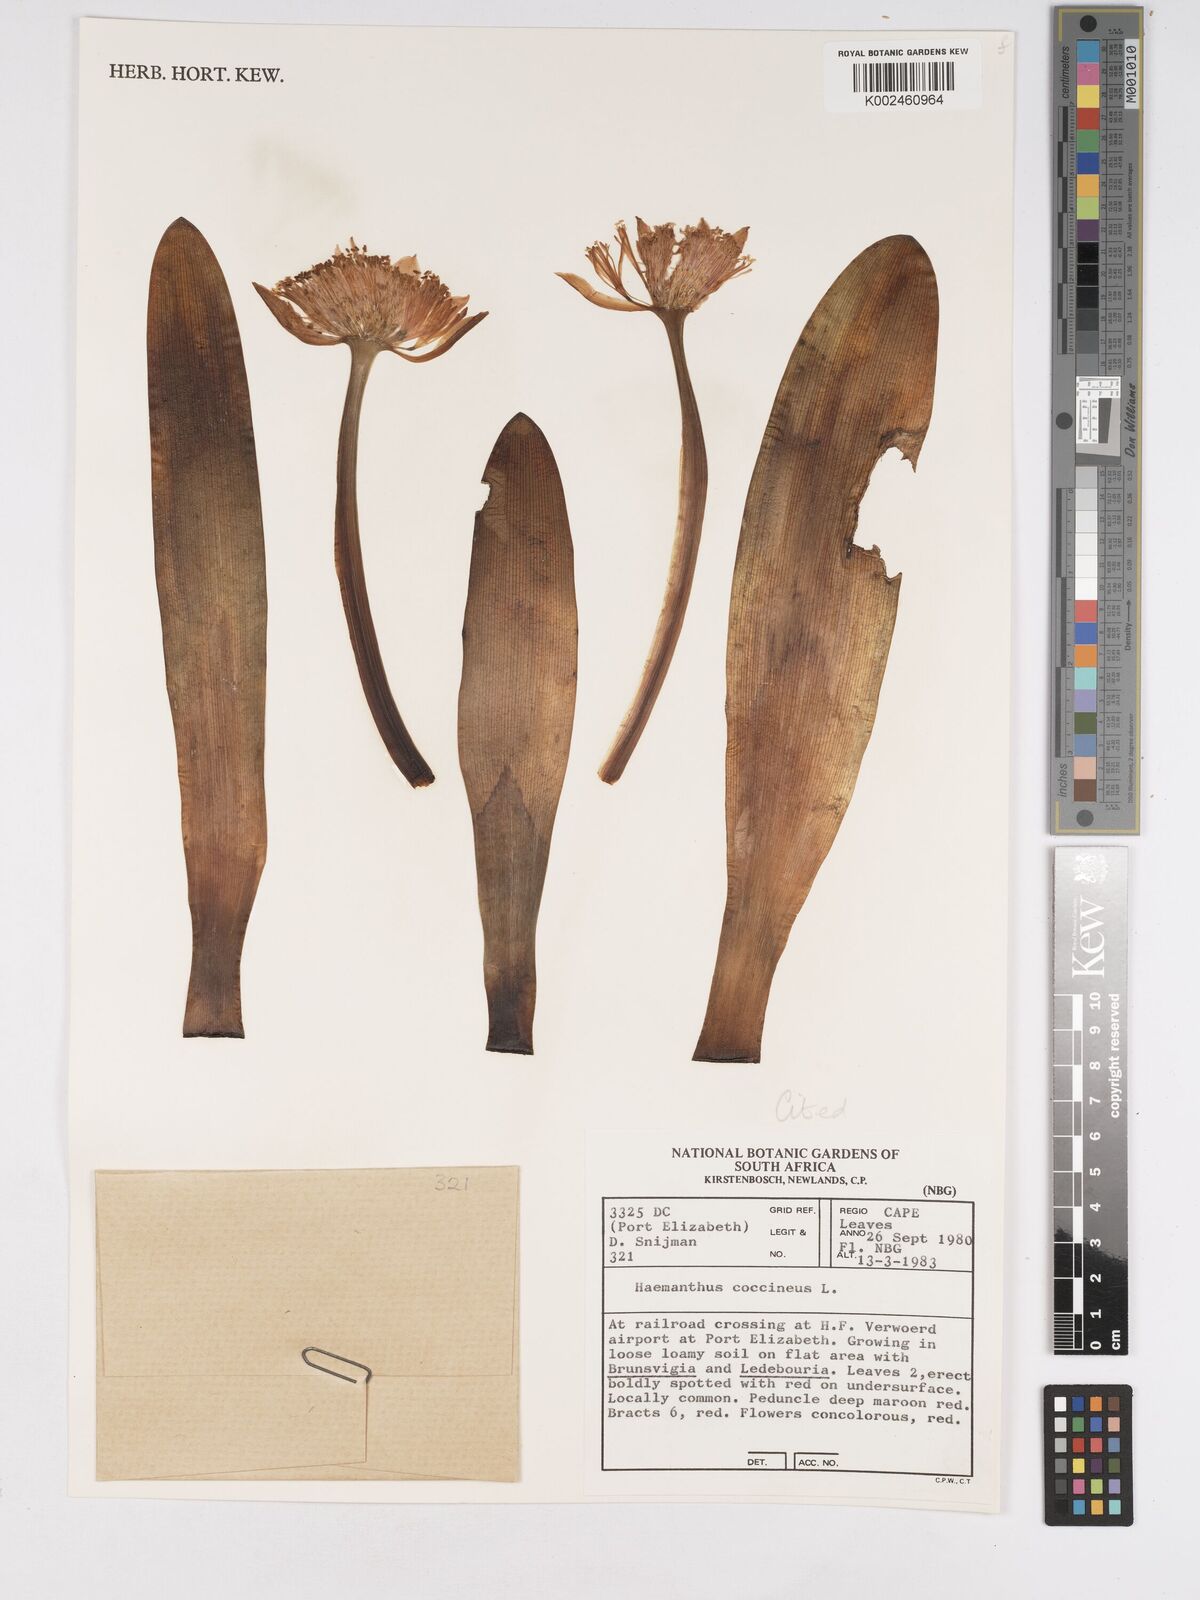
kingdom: Plantae
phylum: Tracheophyta
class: Liliopsida
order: Asparagales
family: Amaryllidaceae
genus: Haemanthus
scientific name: Haemanthus coccineus
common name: Cape-tulip
